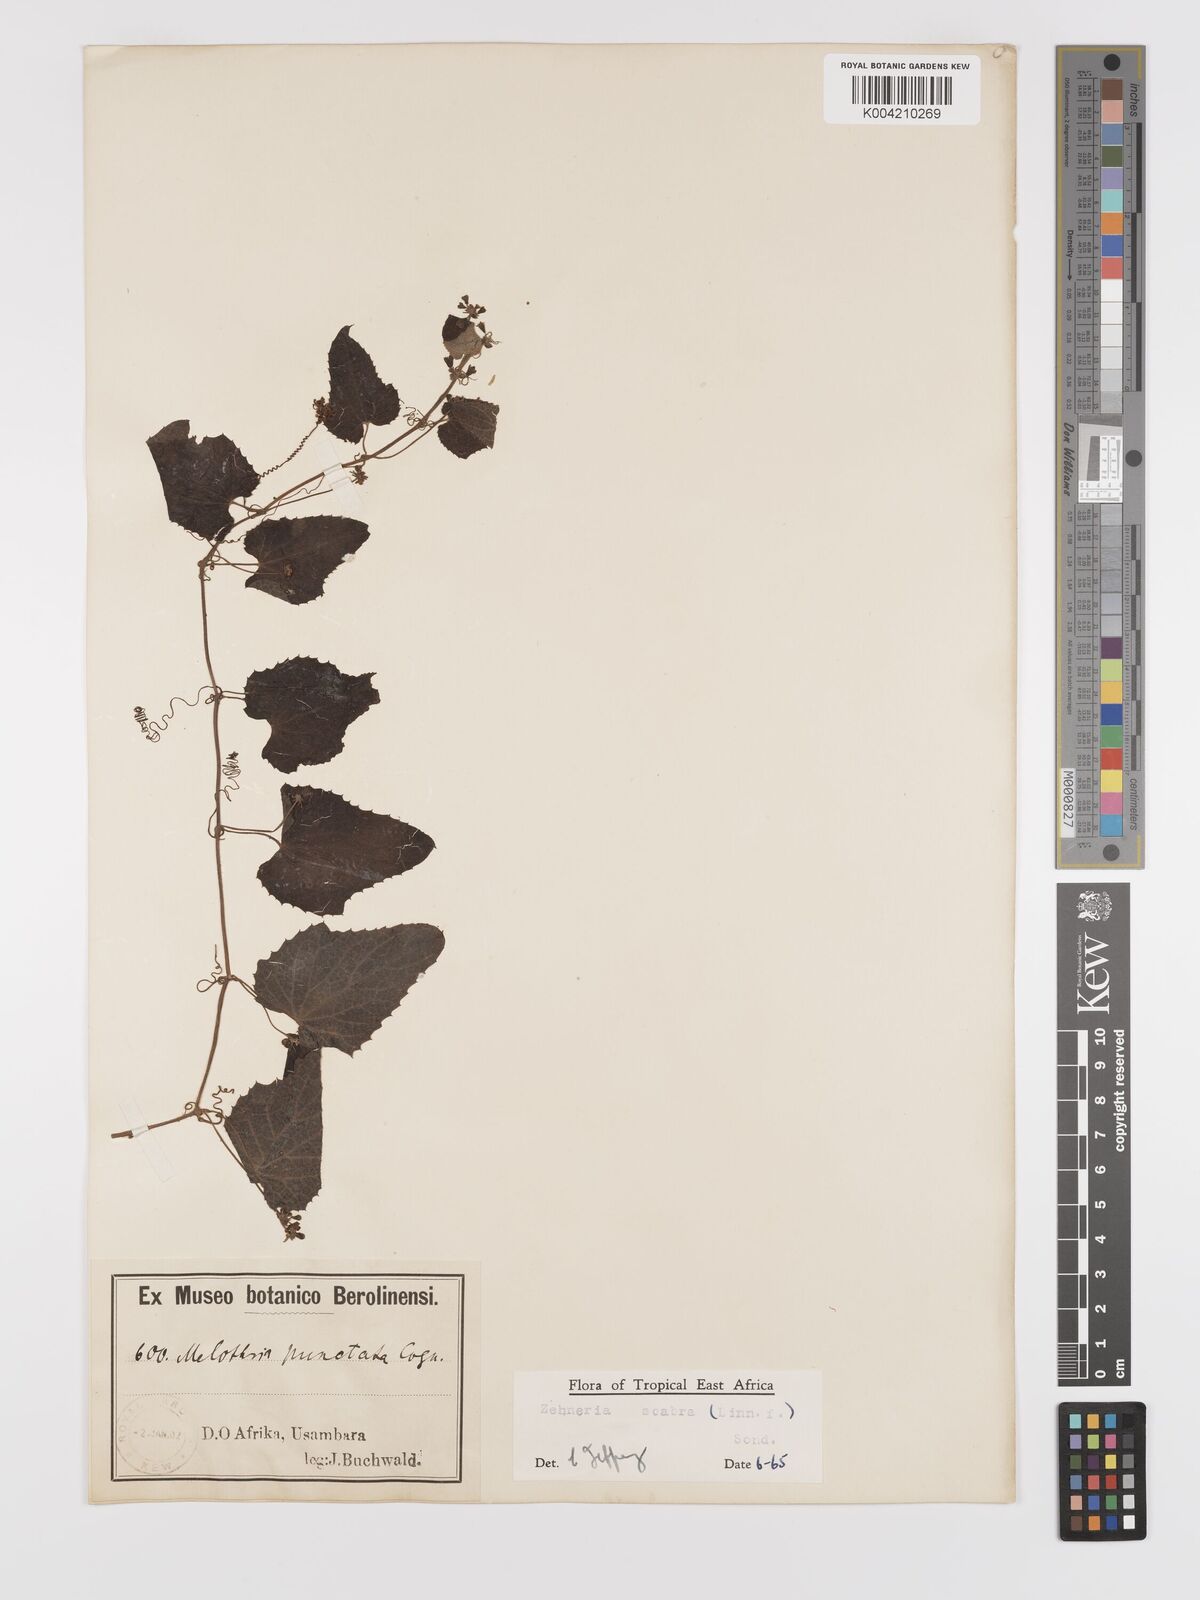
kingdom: Plantae
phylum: Tracheophyta
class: Magnoliopsida
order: Cucurbitales
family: Cucurbitaceae
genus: Zehneria
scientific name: Zehneria scabra
